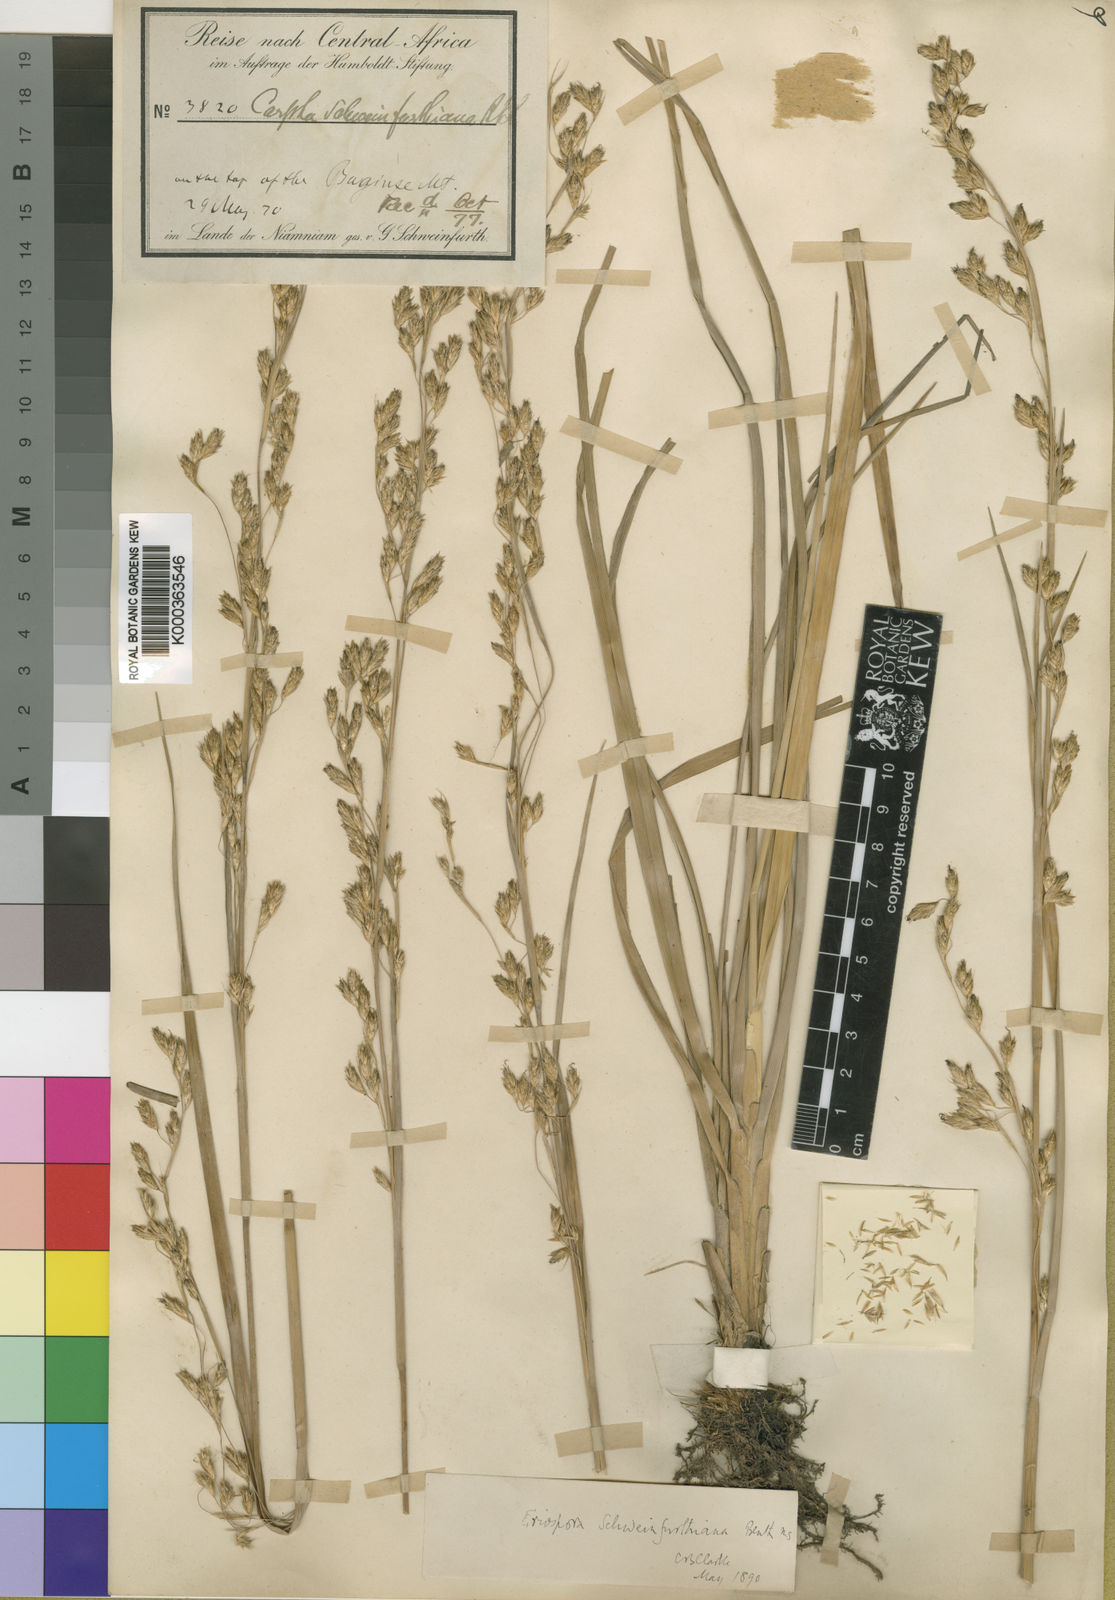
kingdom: Plantae
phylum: Tracheophyta
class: Liliopsida
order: Poales
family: Cyperaceae
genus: Coleochloa
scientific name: Coleochloa schweinfurthiana
